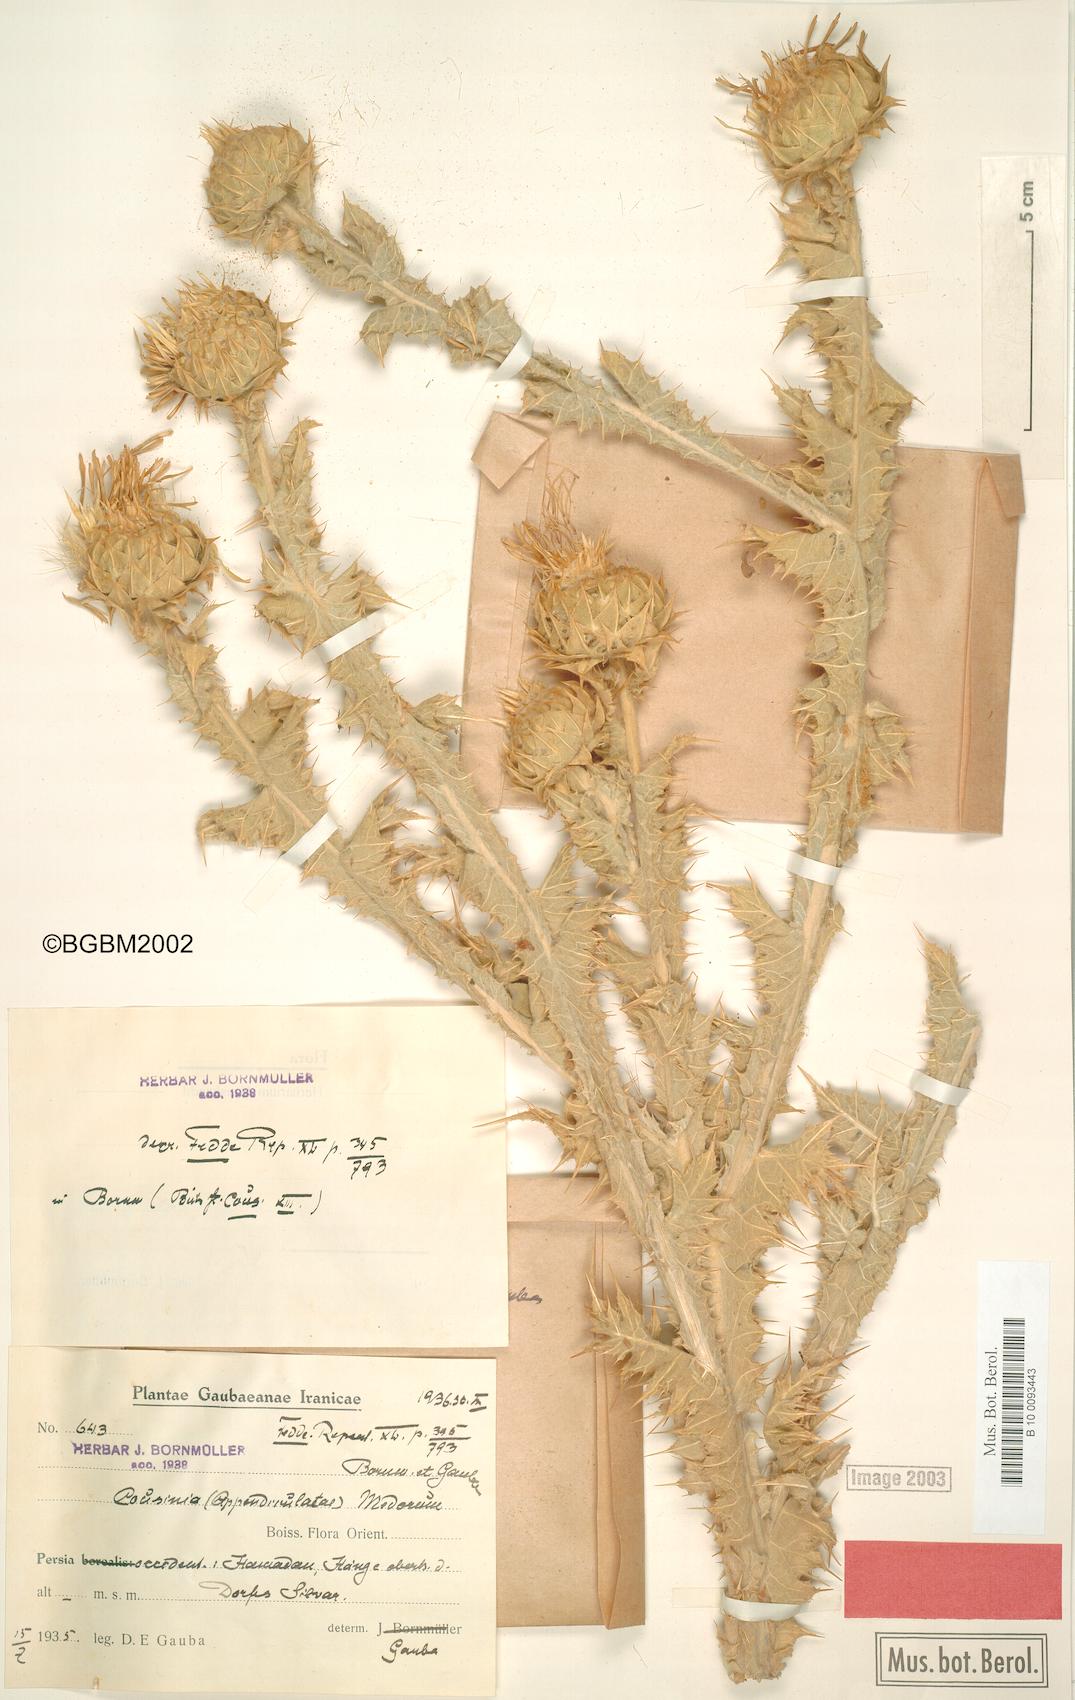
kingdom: Plantae
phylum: Tracheophyta
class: Magnoliopsida
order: Asterales
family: Asteraceae
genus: Cousinia
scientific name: Cousinia araneosa
